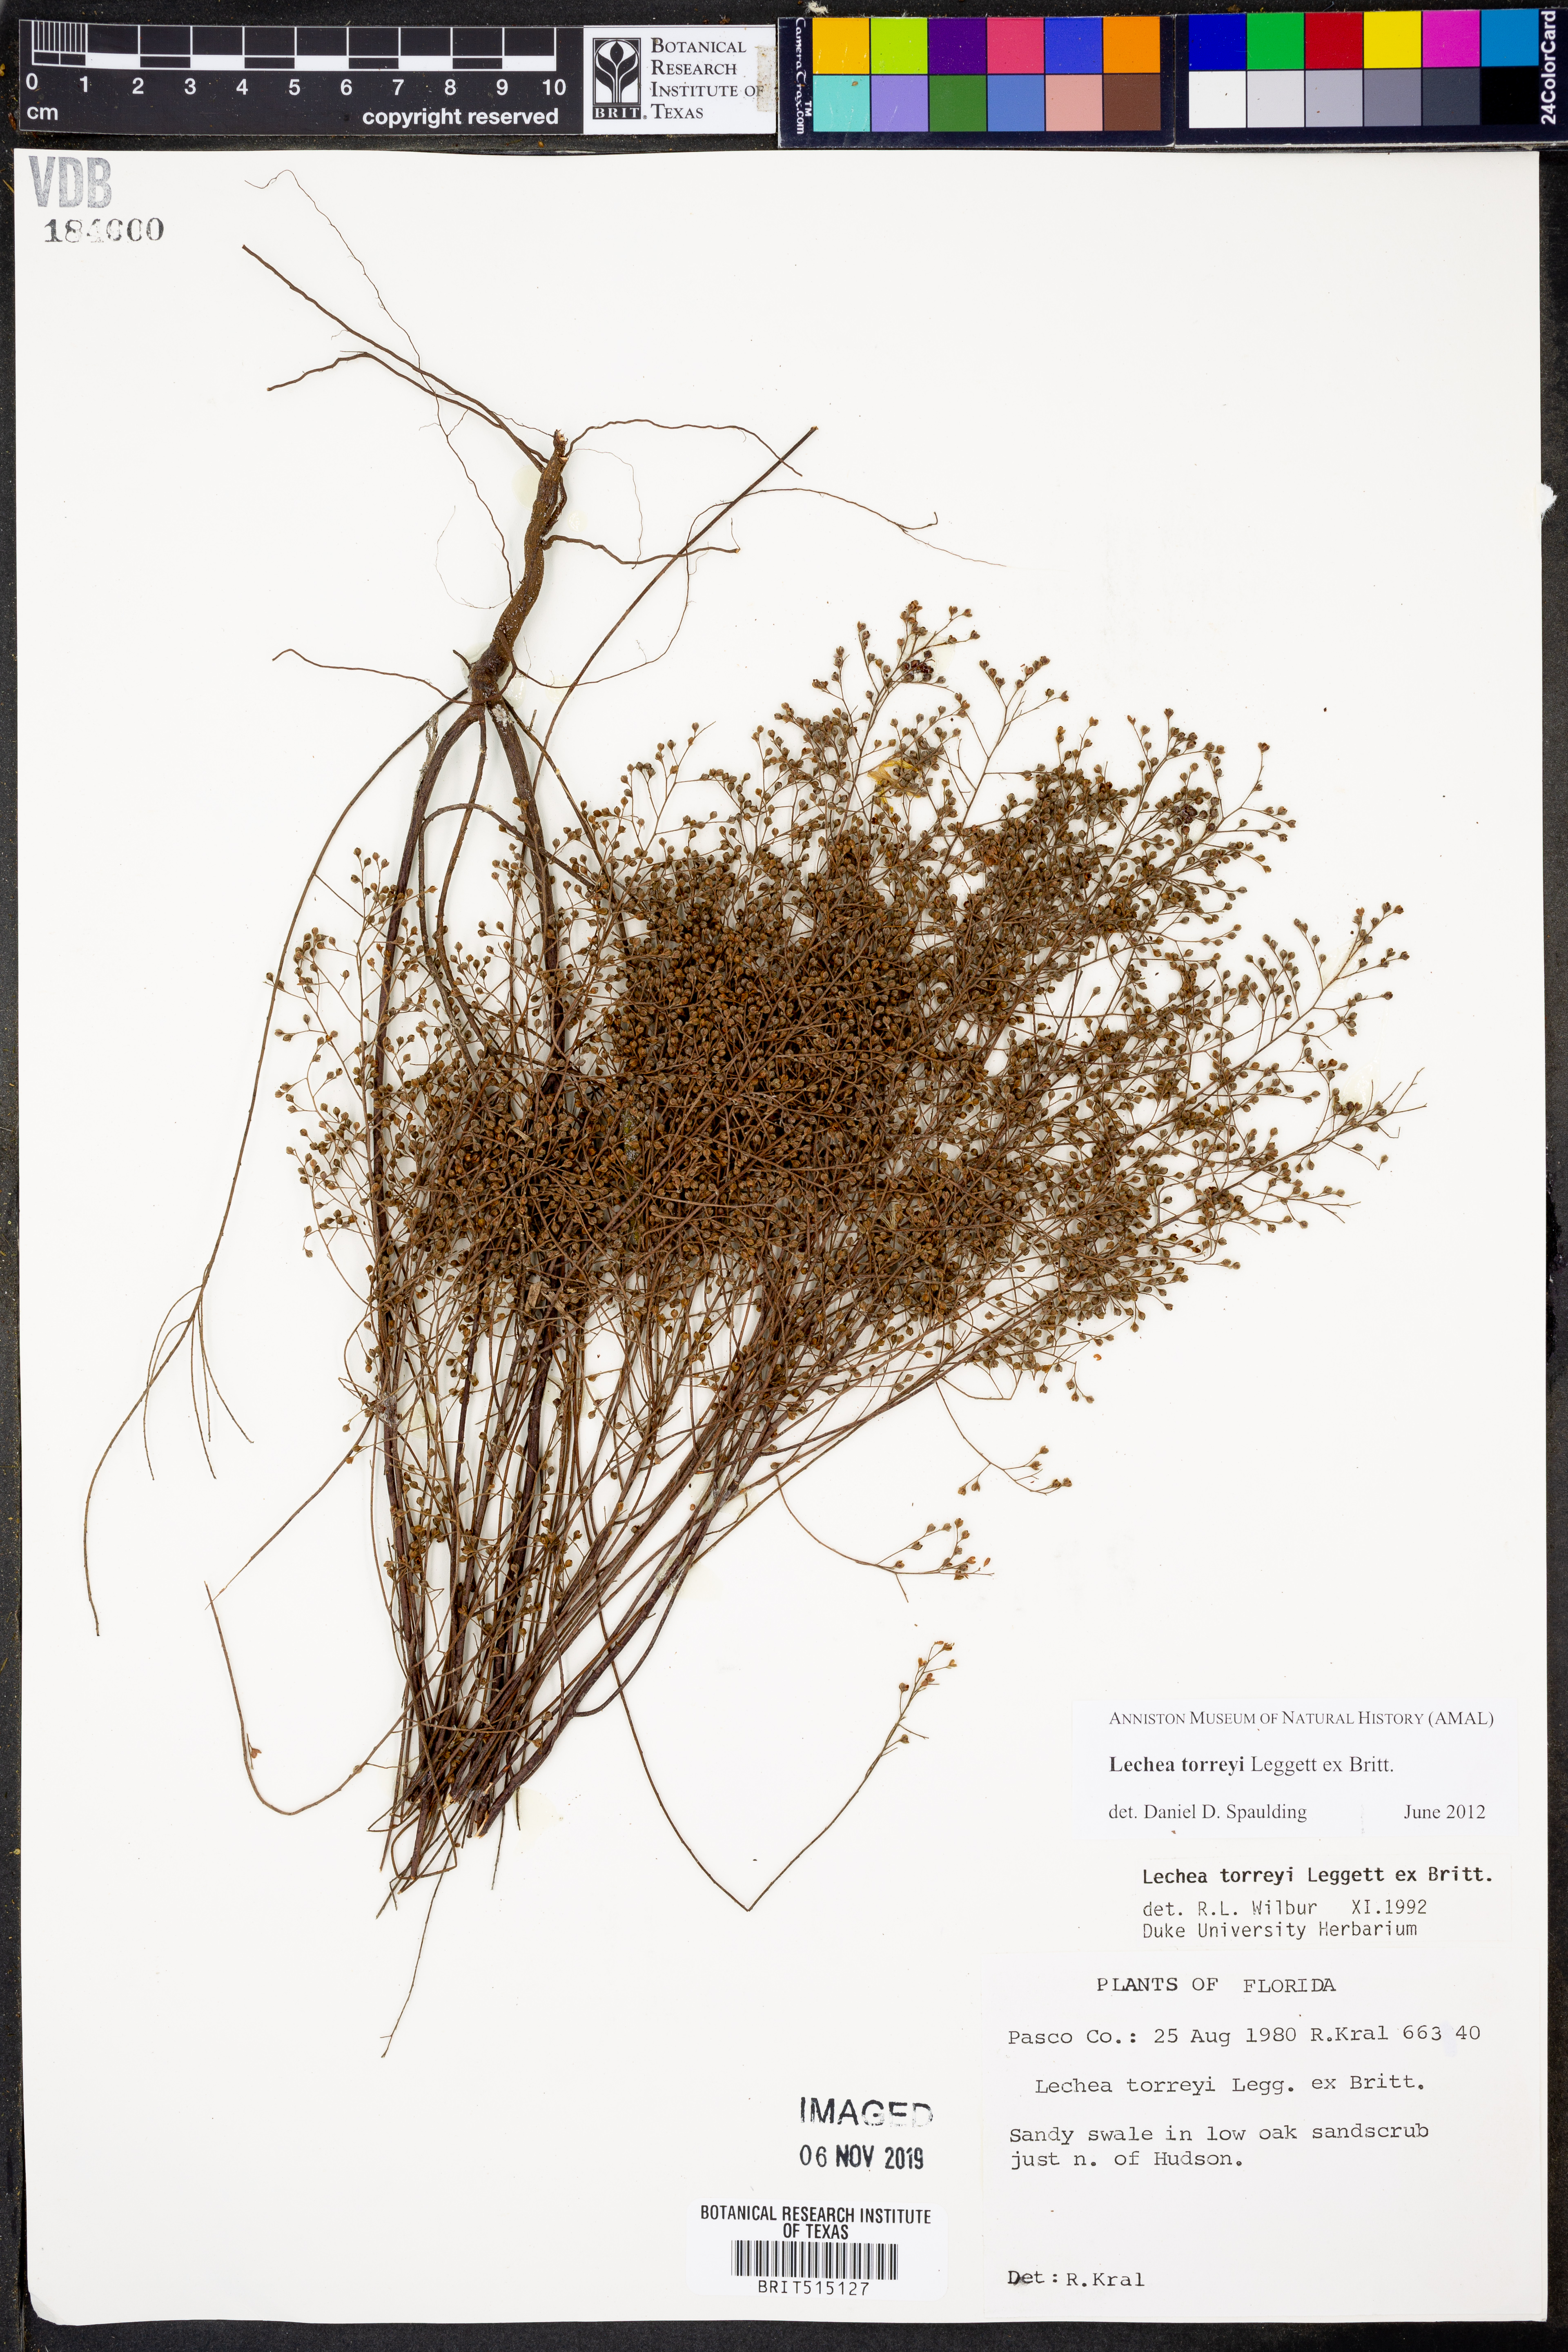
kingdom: Plantae
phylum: Tracheophyta
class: Magnoliopsida
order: Malvales
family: Cistaceae
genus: Lechea
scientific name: Lechea torreyi
